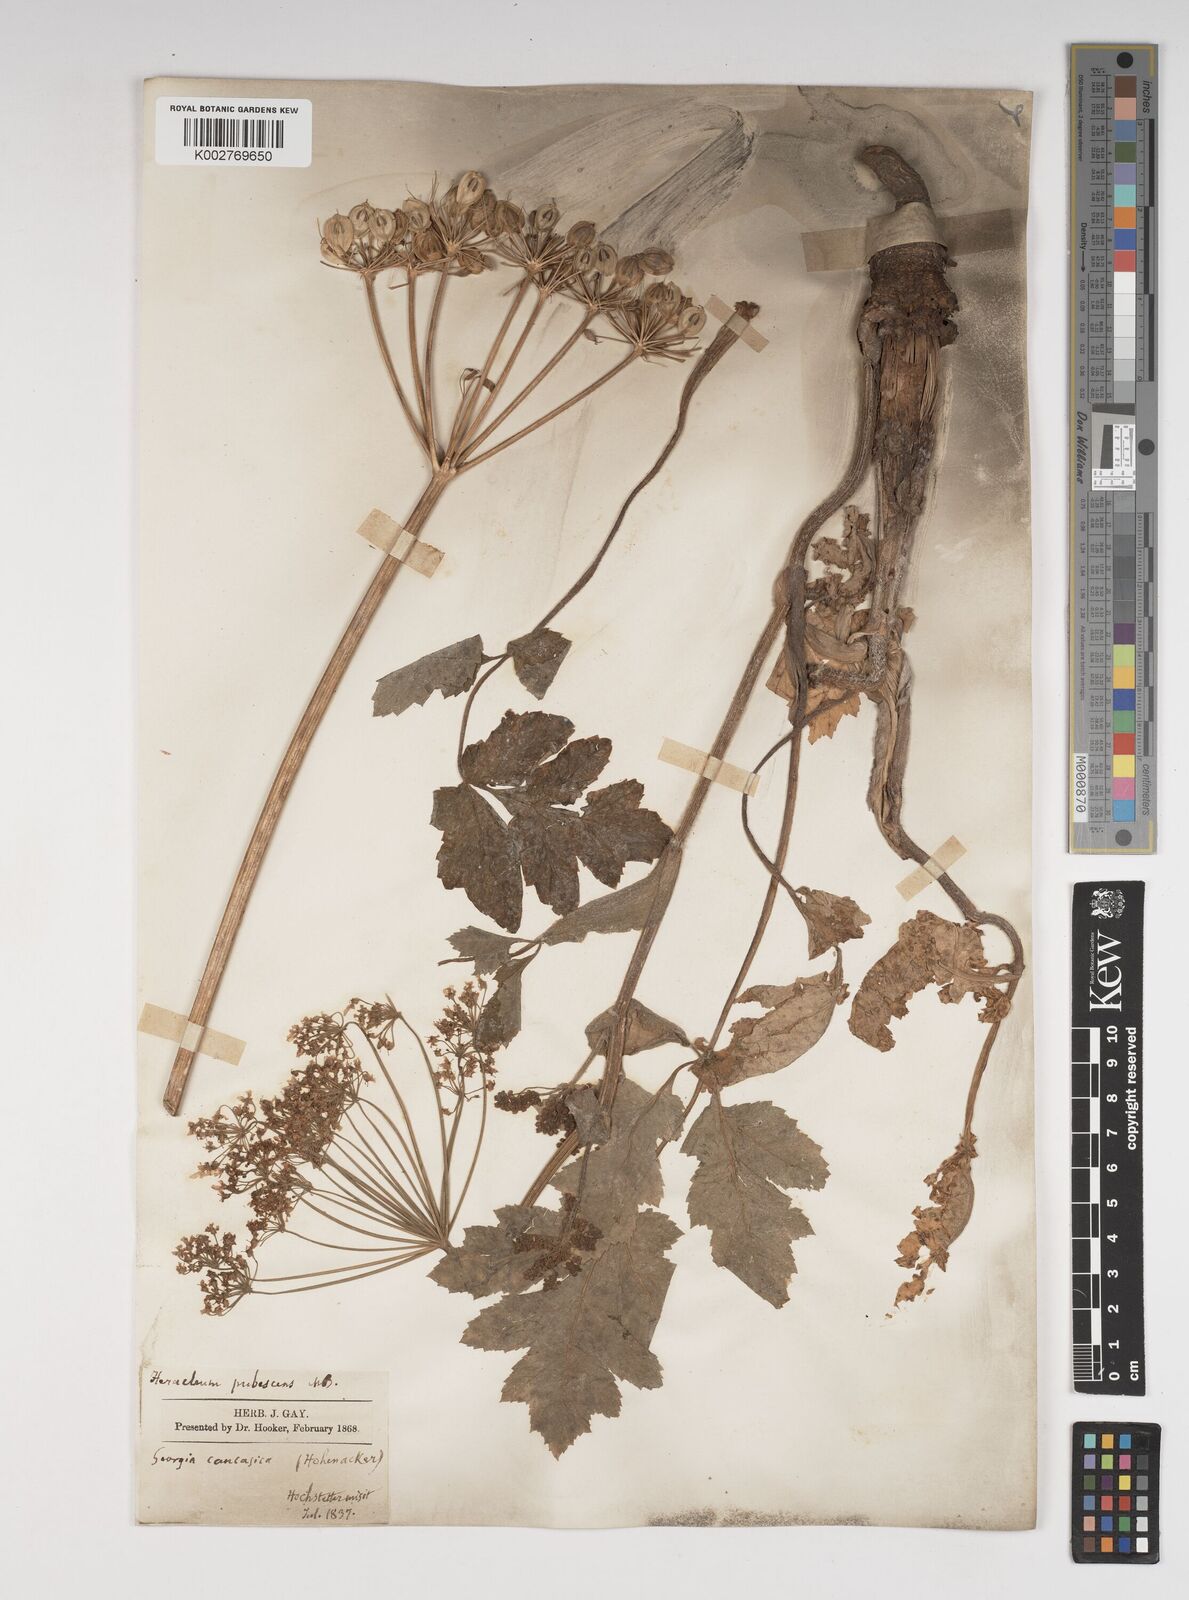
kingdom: Plantae
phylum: Tracheophyta
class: Magnoliopsida
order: Apiales
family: Apiaceae
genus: Heracleum
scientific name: Heracleum pubescens
